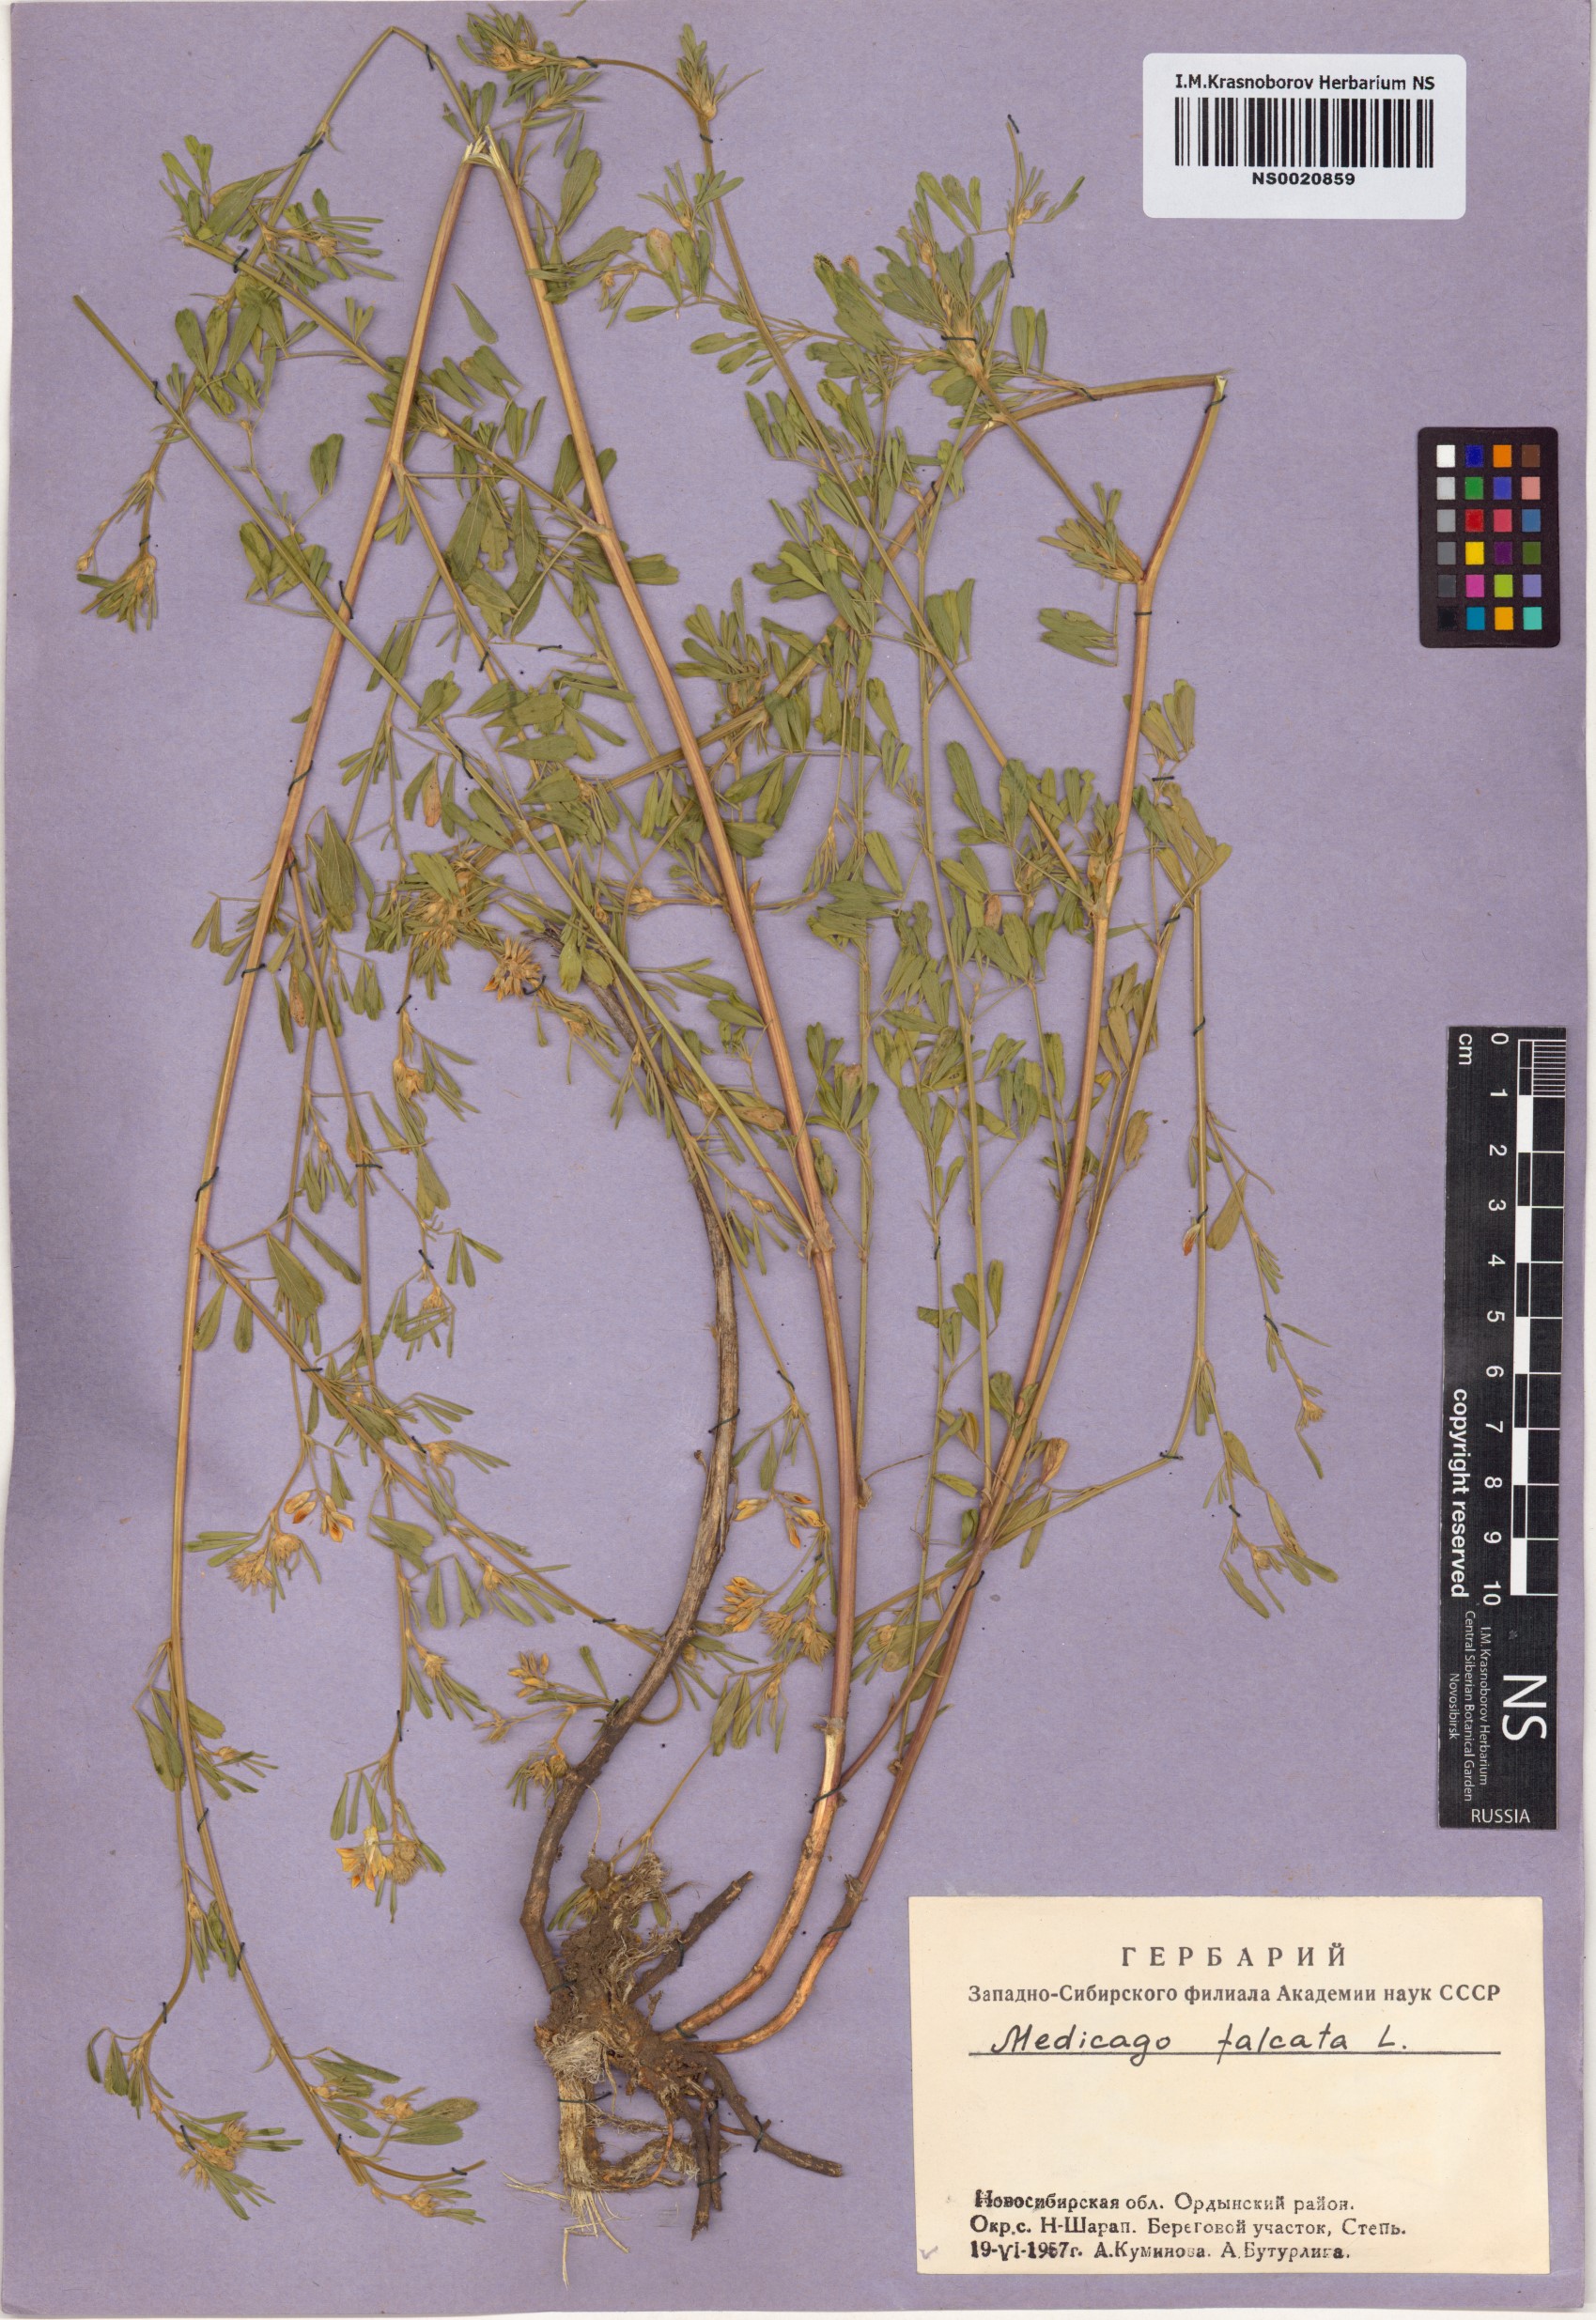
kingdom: Plantae
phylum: Tracheophyta
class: Magnoliopsida
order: Fabales
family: Fabaceae
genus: Medicago
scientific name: Medicago falcata
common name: Sickle medick
